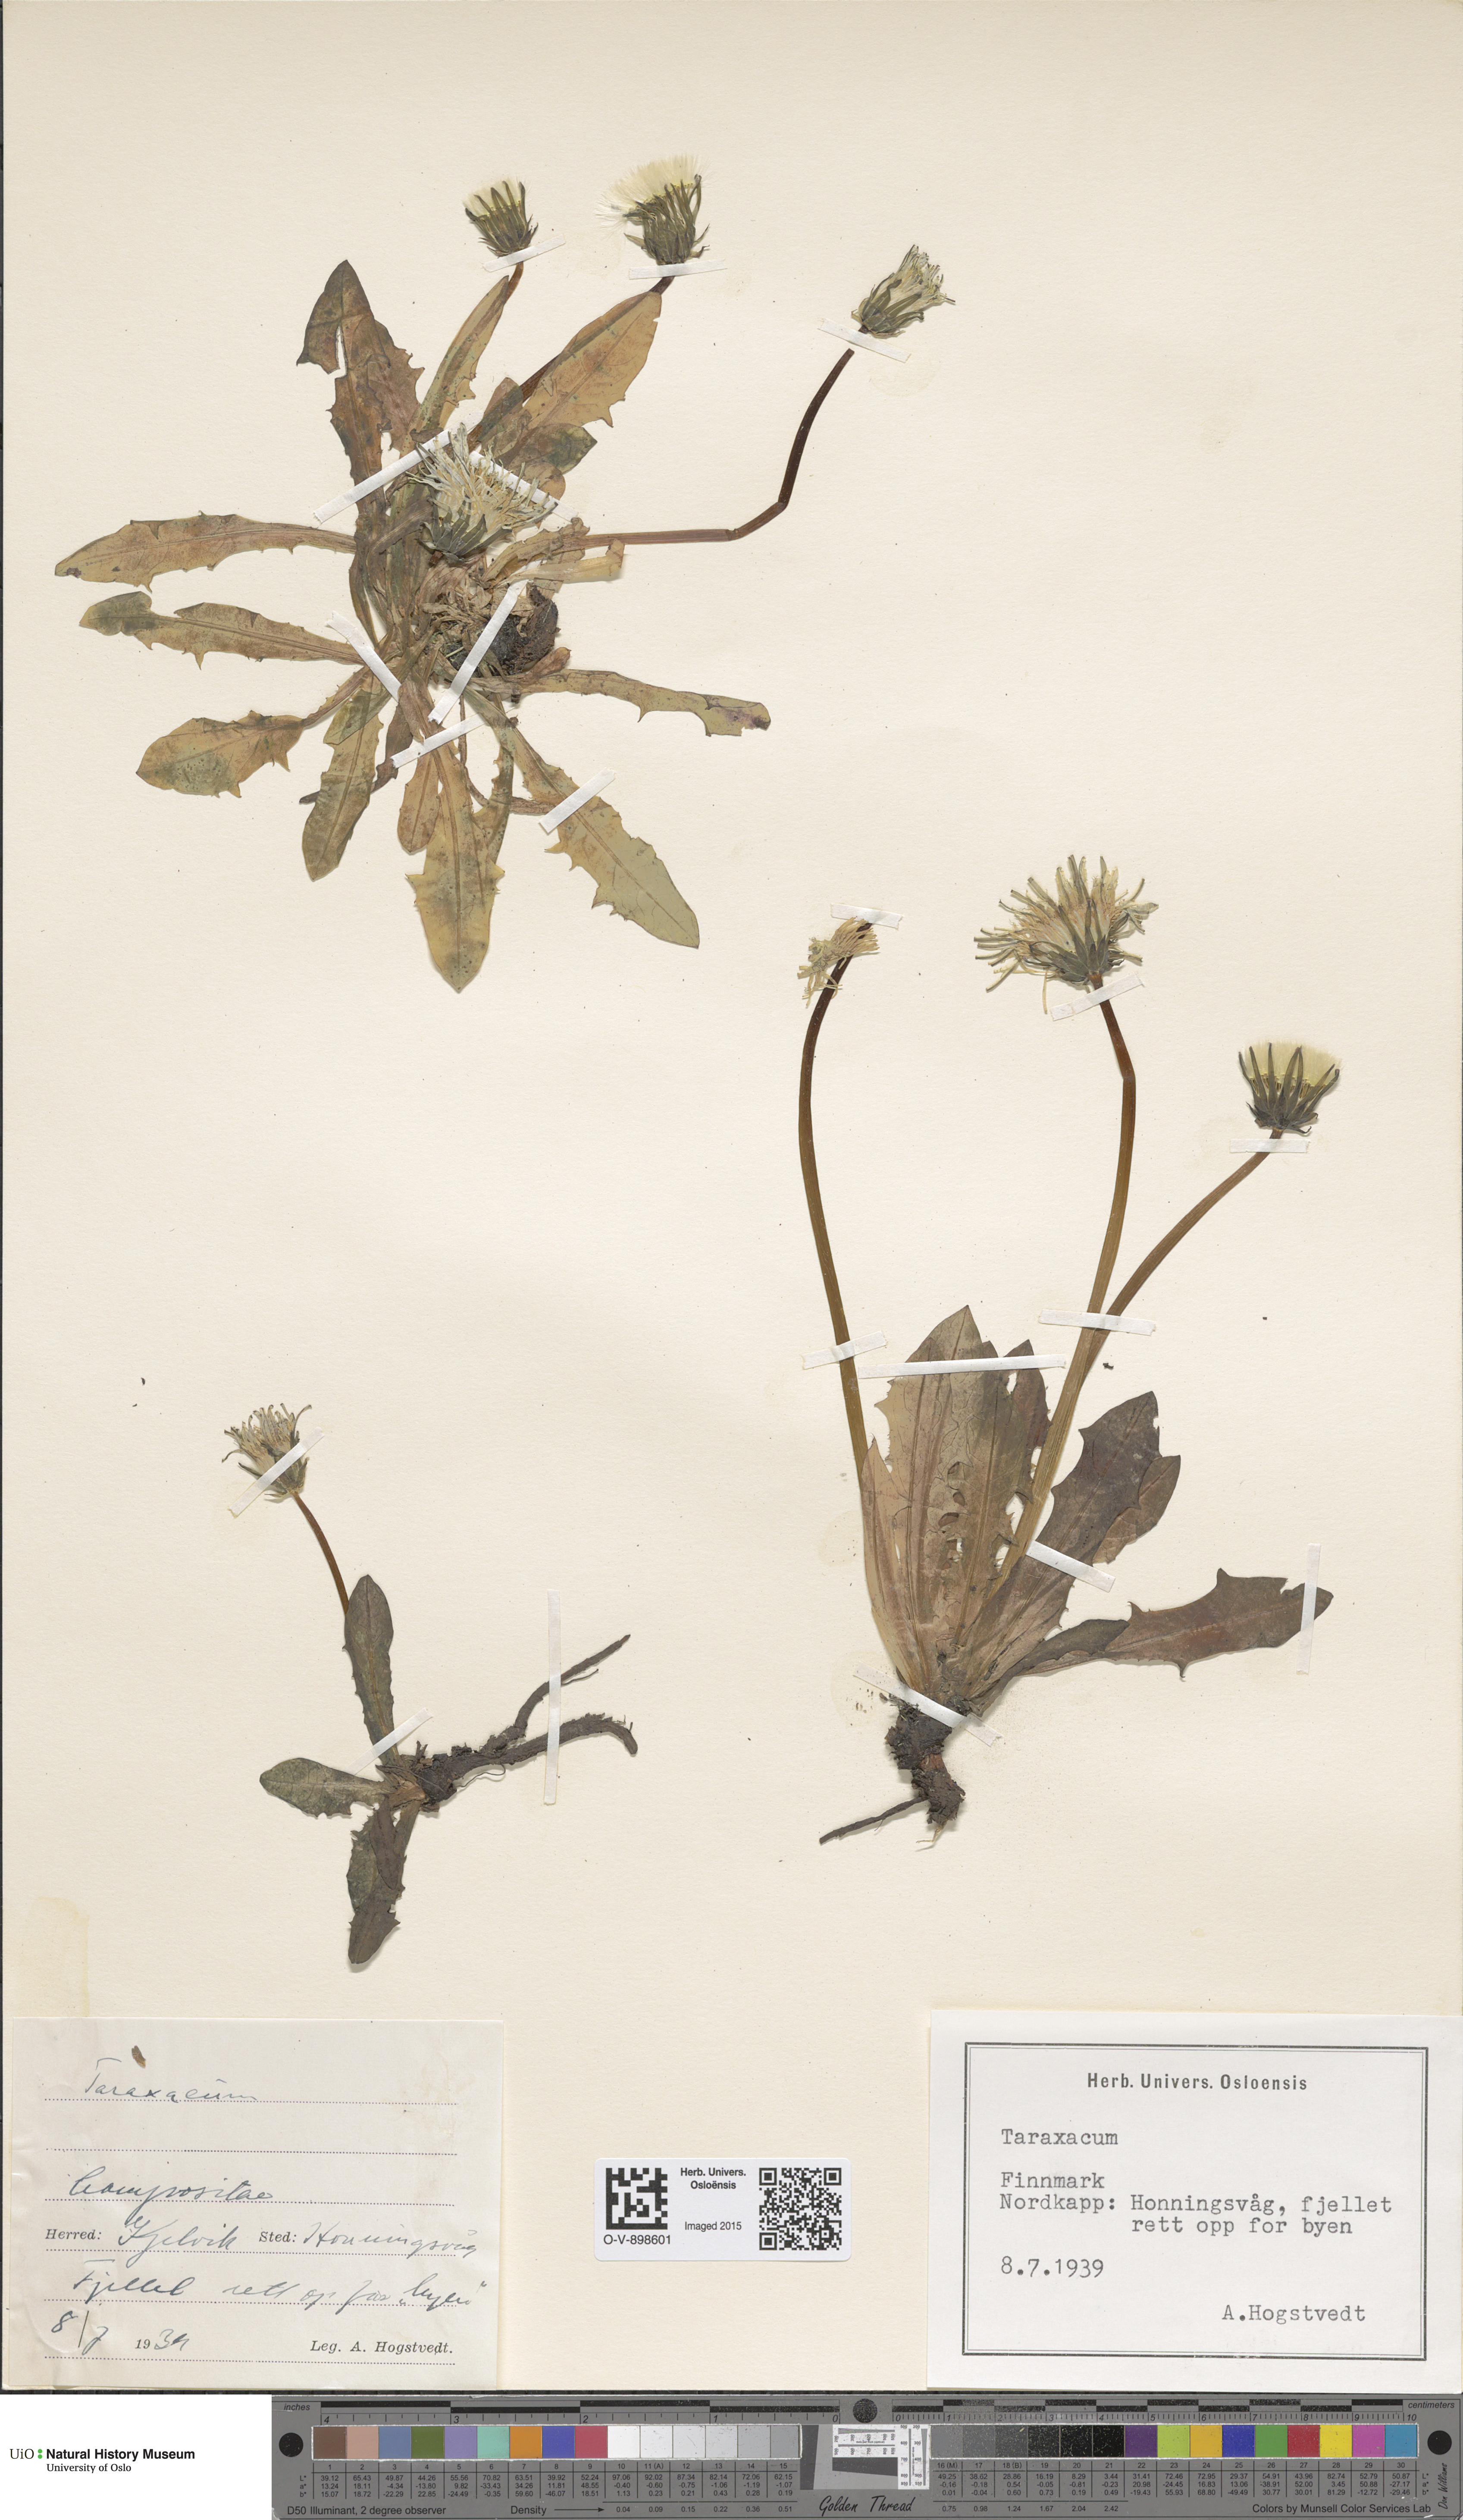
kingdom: Plantae
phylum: Tracheophyta
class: Magnoliopsida
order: Asterales
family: Asteraceae
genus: Taraxacum
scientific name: Taraxacum
